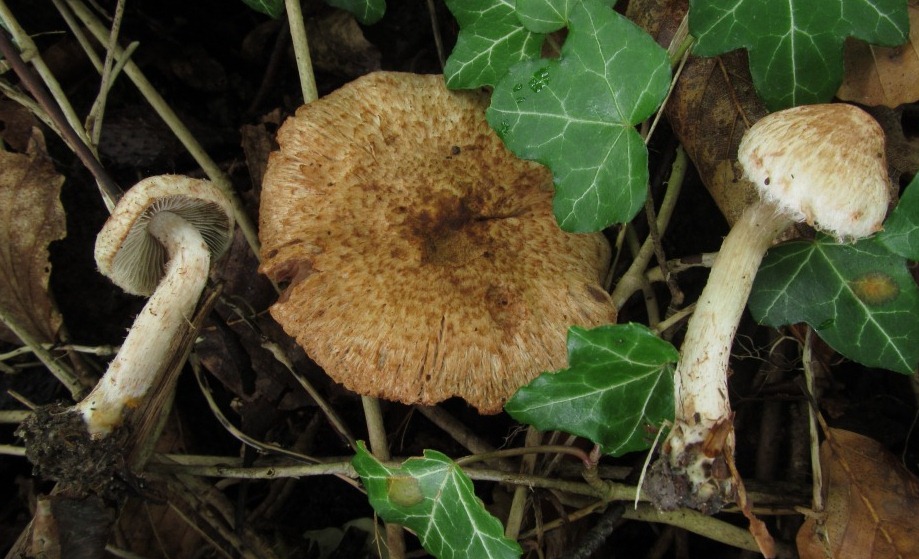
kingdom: Fungi
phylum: Basidiomycota
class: Agaricomycetes
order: Agaricales
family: Inocybaceae
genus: Inosperma
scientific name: Inosperma bongardii
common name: Bongards trævlhat
